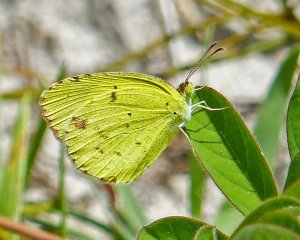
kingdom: Animalia
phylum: Arthropoda
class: Insecta
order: Lepidoptera
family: Pieridae
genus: Pyrisitia
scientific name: Pyrisitia lisa
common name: Little Yellow
